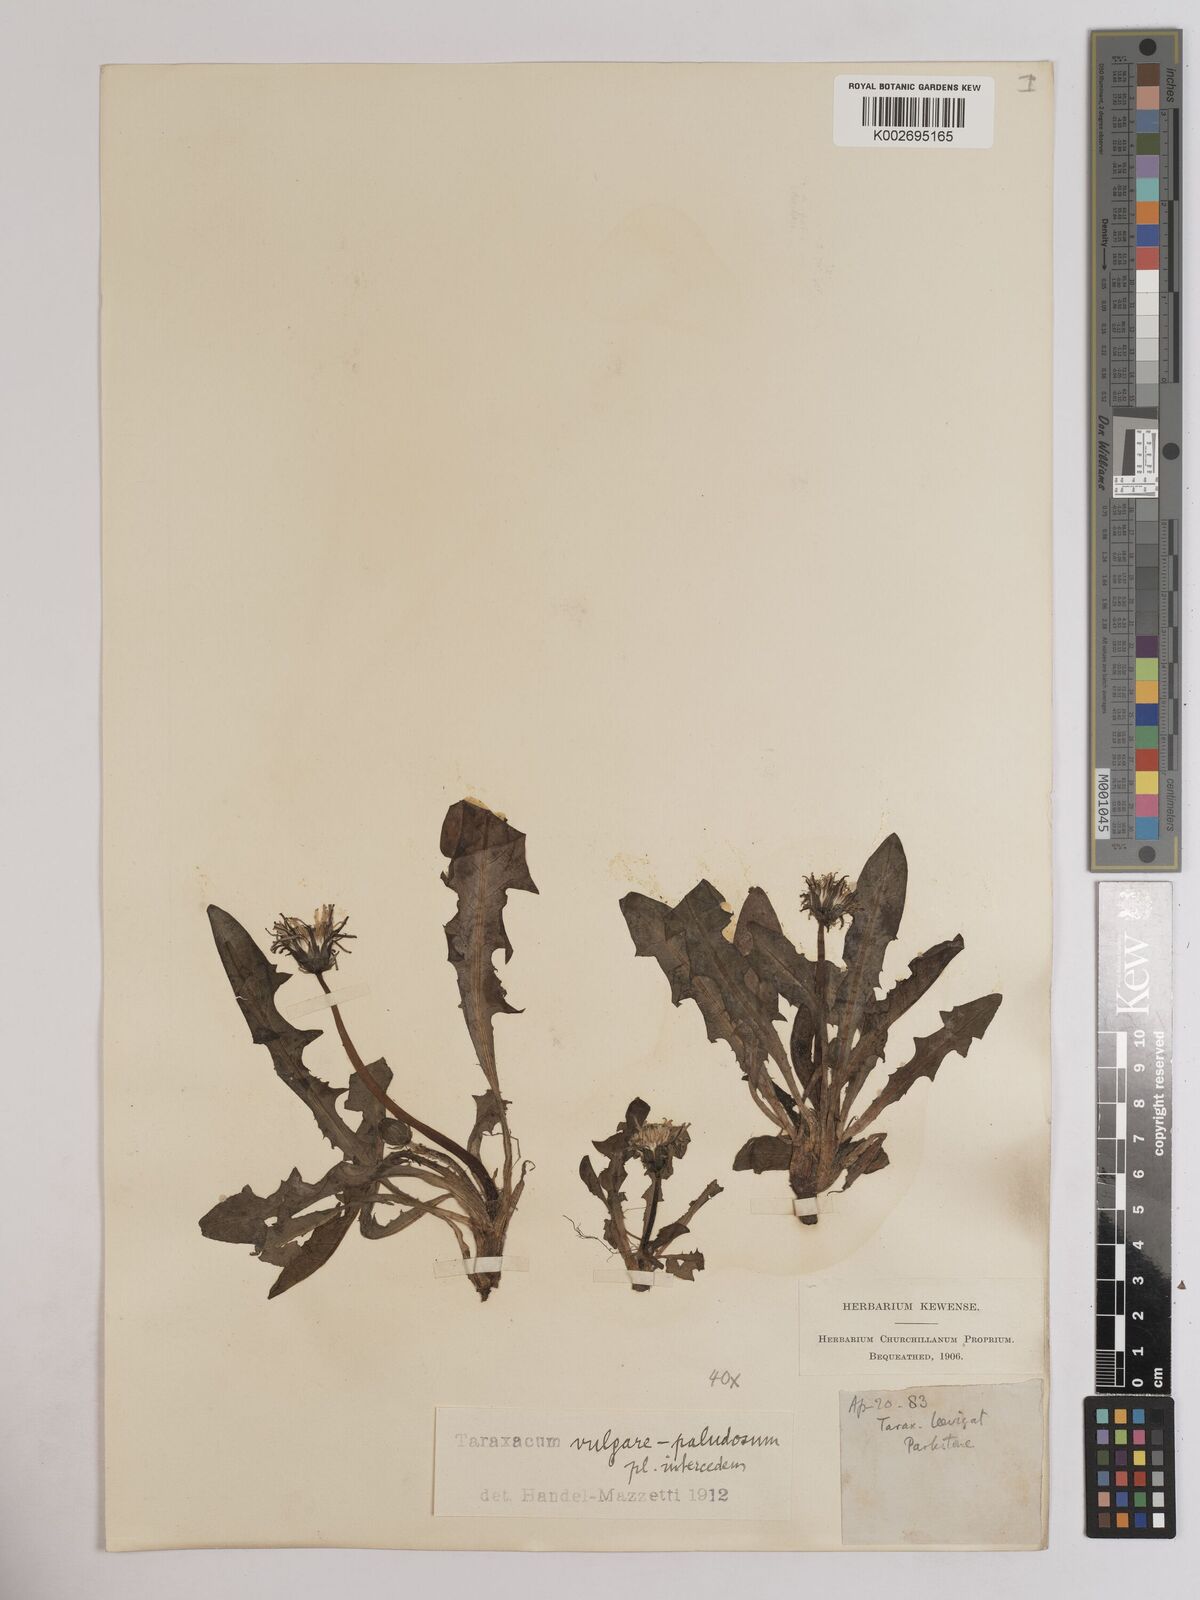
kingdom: Plantae
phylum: Tracheophyta
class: Magnoliopsida
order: Asterales
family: Asteraceae
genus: Taraxacum
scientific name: Taraxacum officinale
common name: Common dandelion
